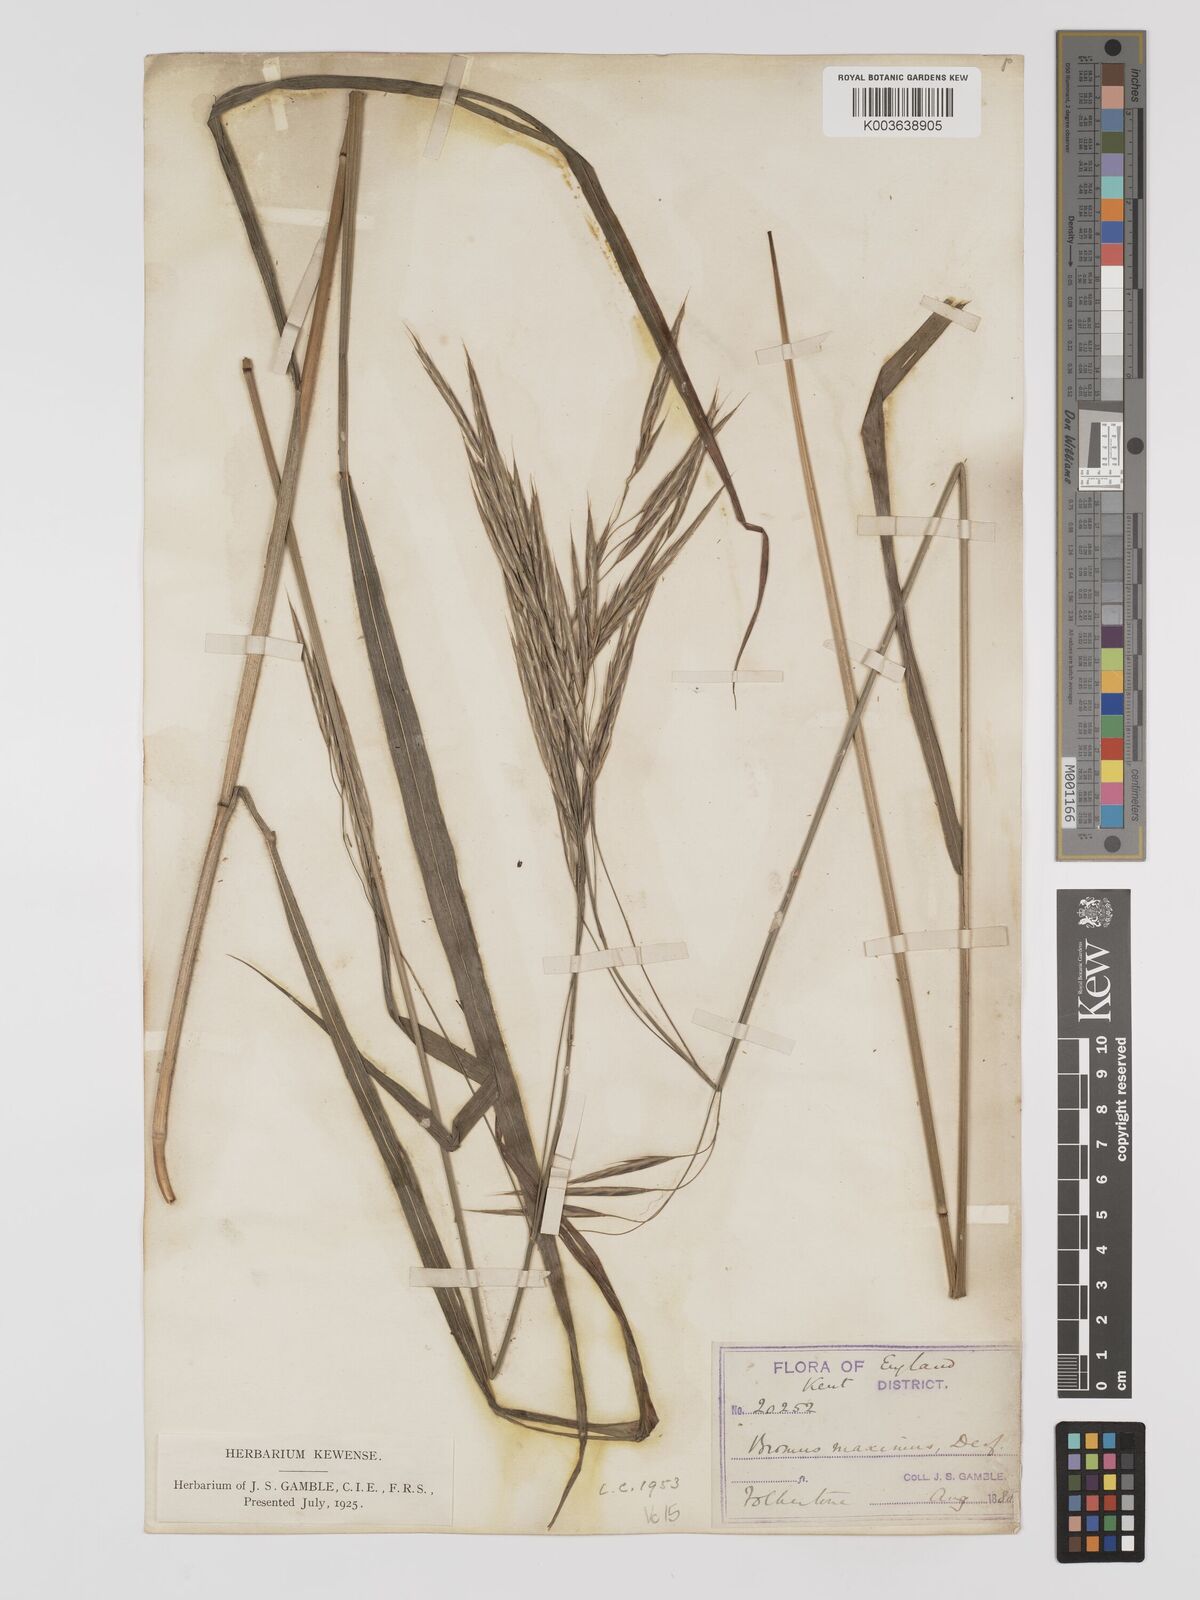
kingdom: Plantae
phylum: Tracheophyta
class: Liliopsida
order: Poales
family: Poaceae
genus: Bromus
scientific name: Bromus ramosus
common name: Hairy brome
